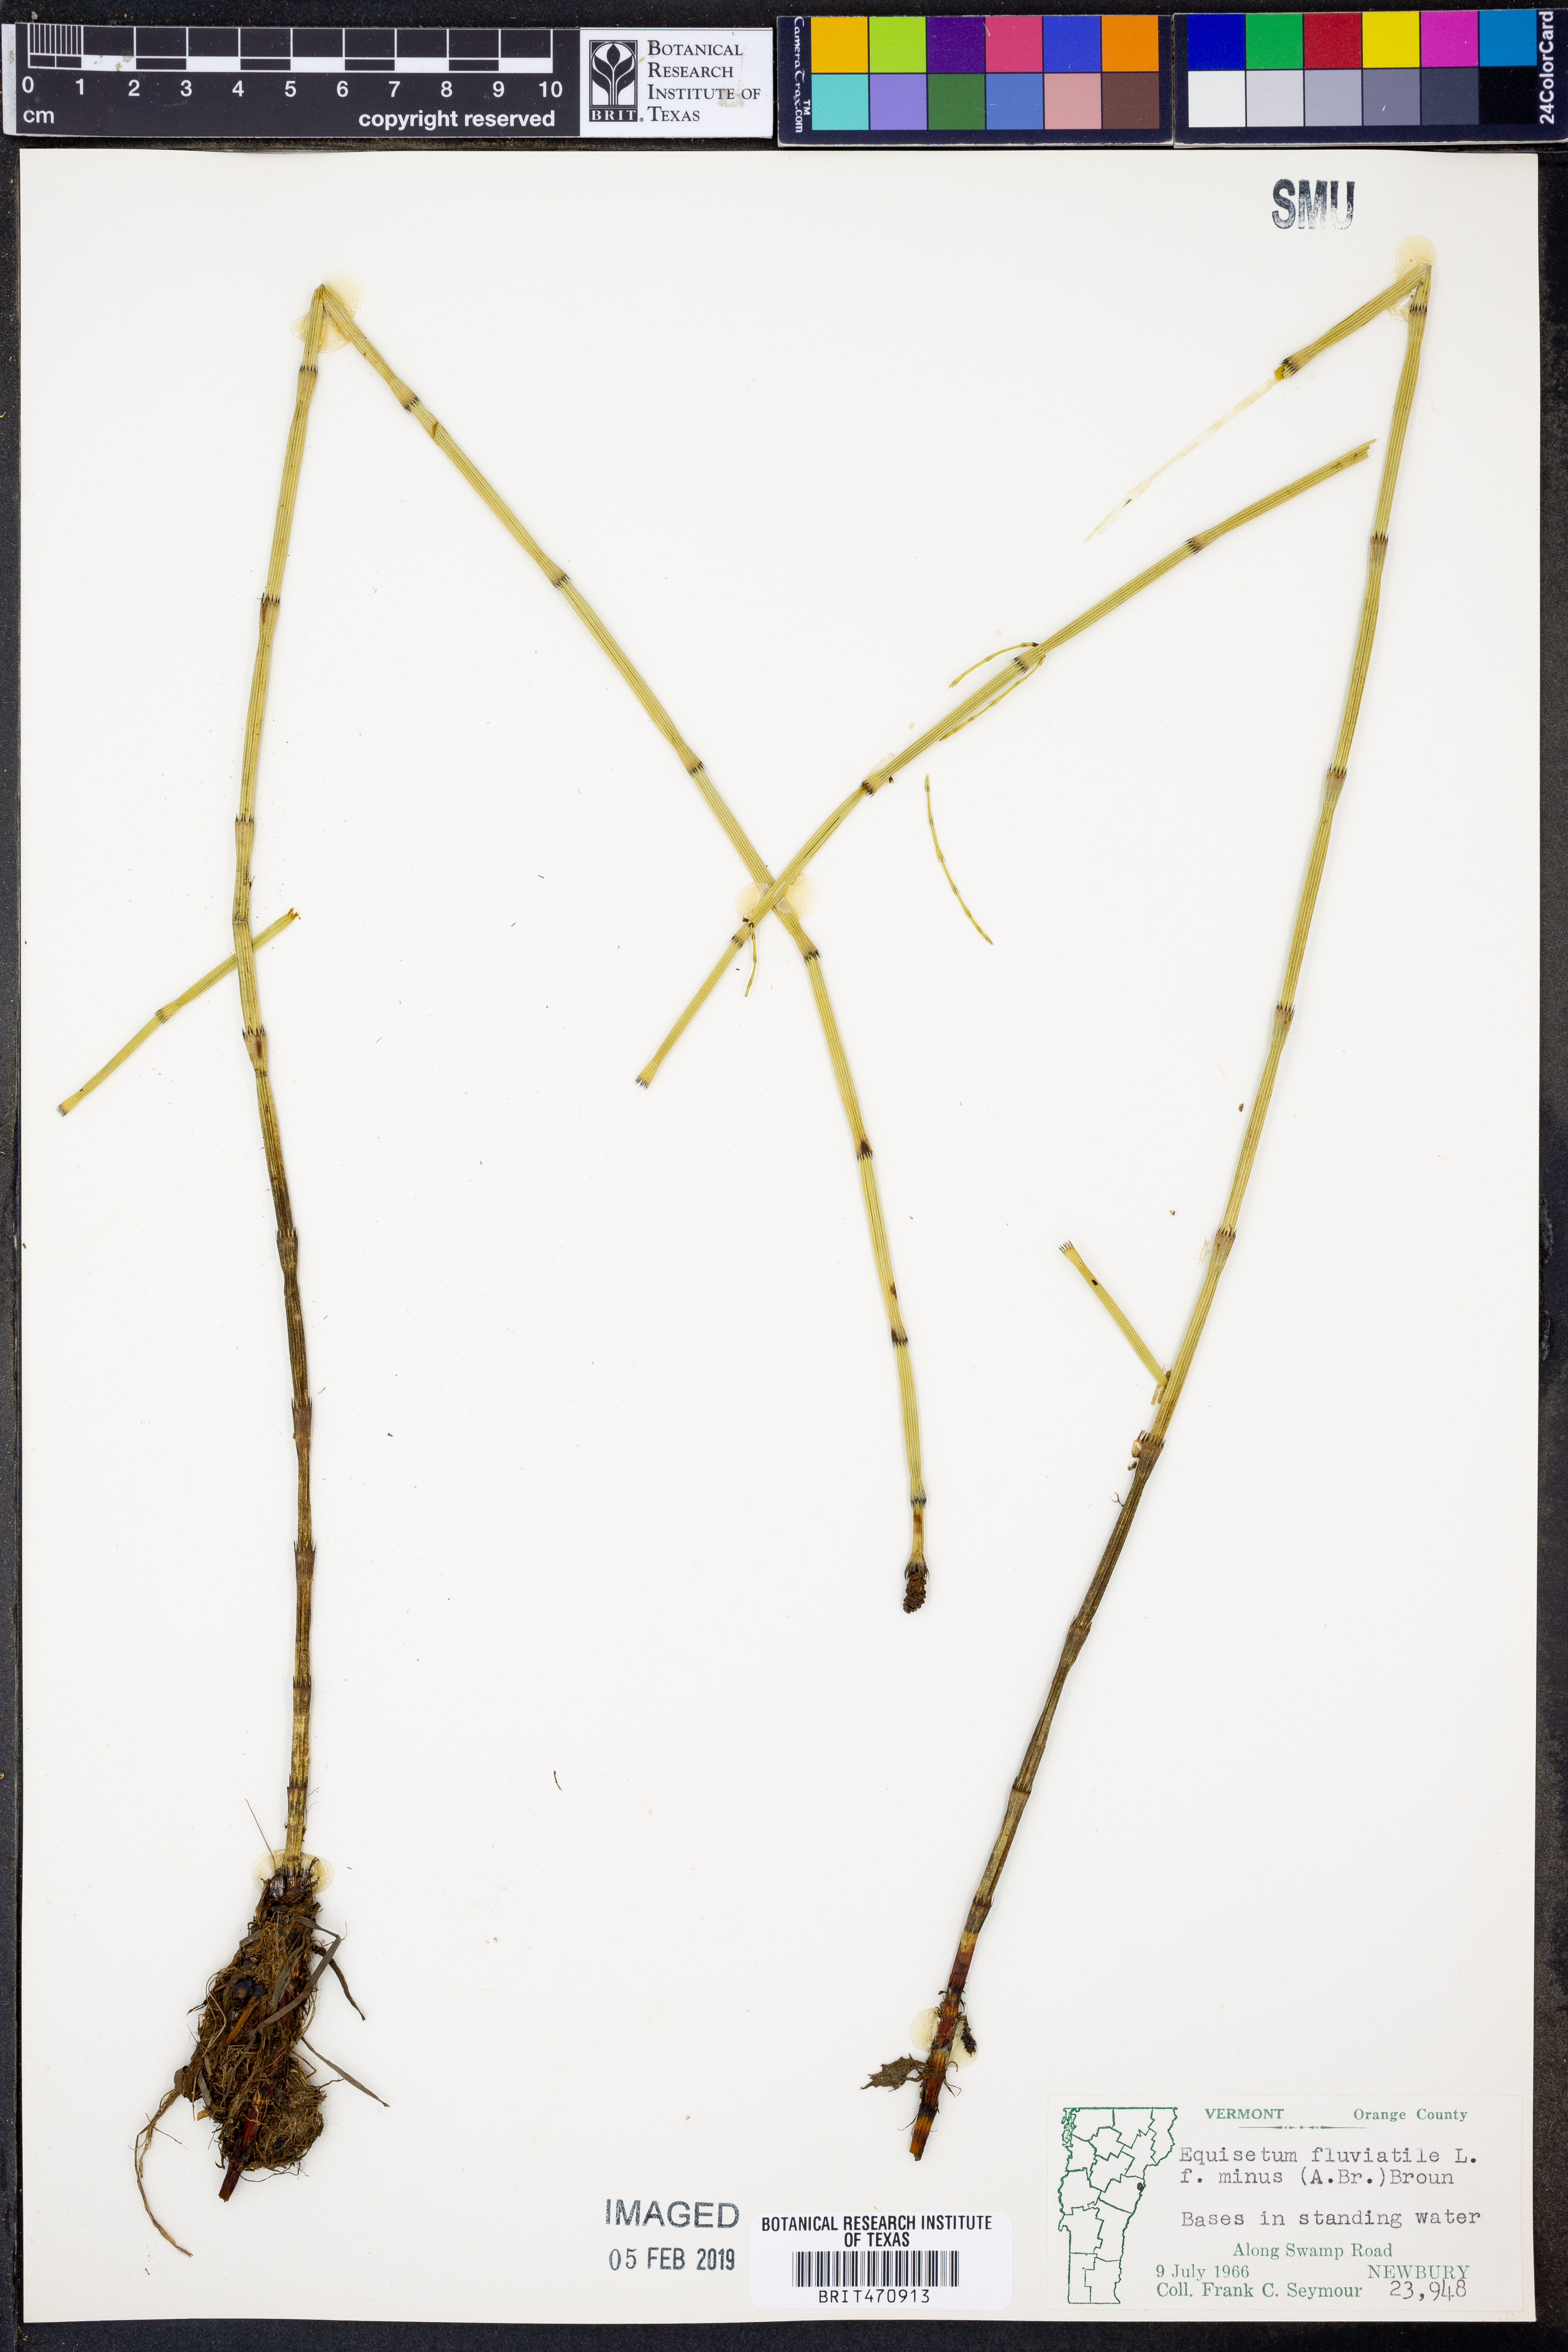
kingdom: Plantae
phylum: Tracheophyta
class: Polypodiopsida
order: Equisetales
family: Equisetaceae
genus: Equisetum
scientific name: Equisetum fluviatile
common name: Water horsetail
